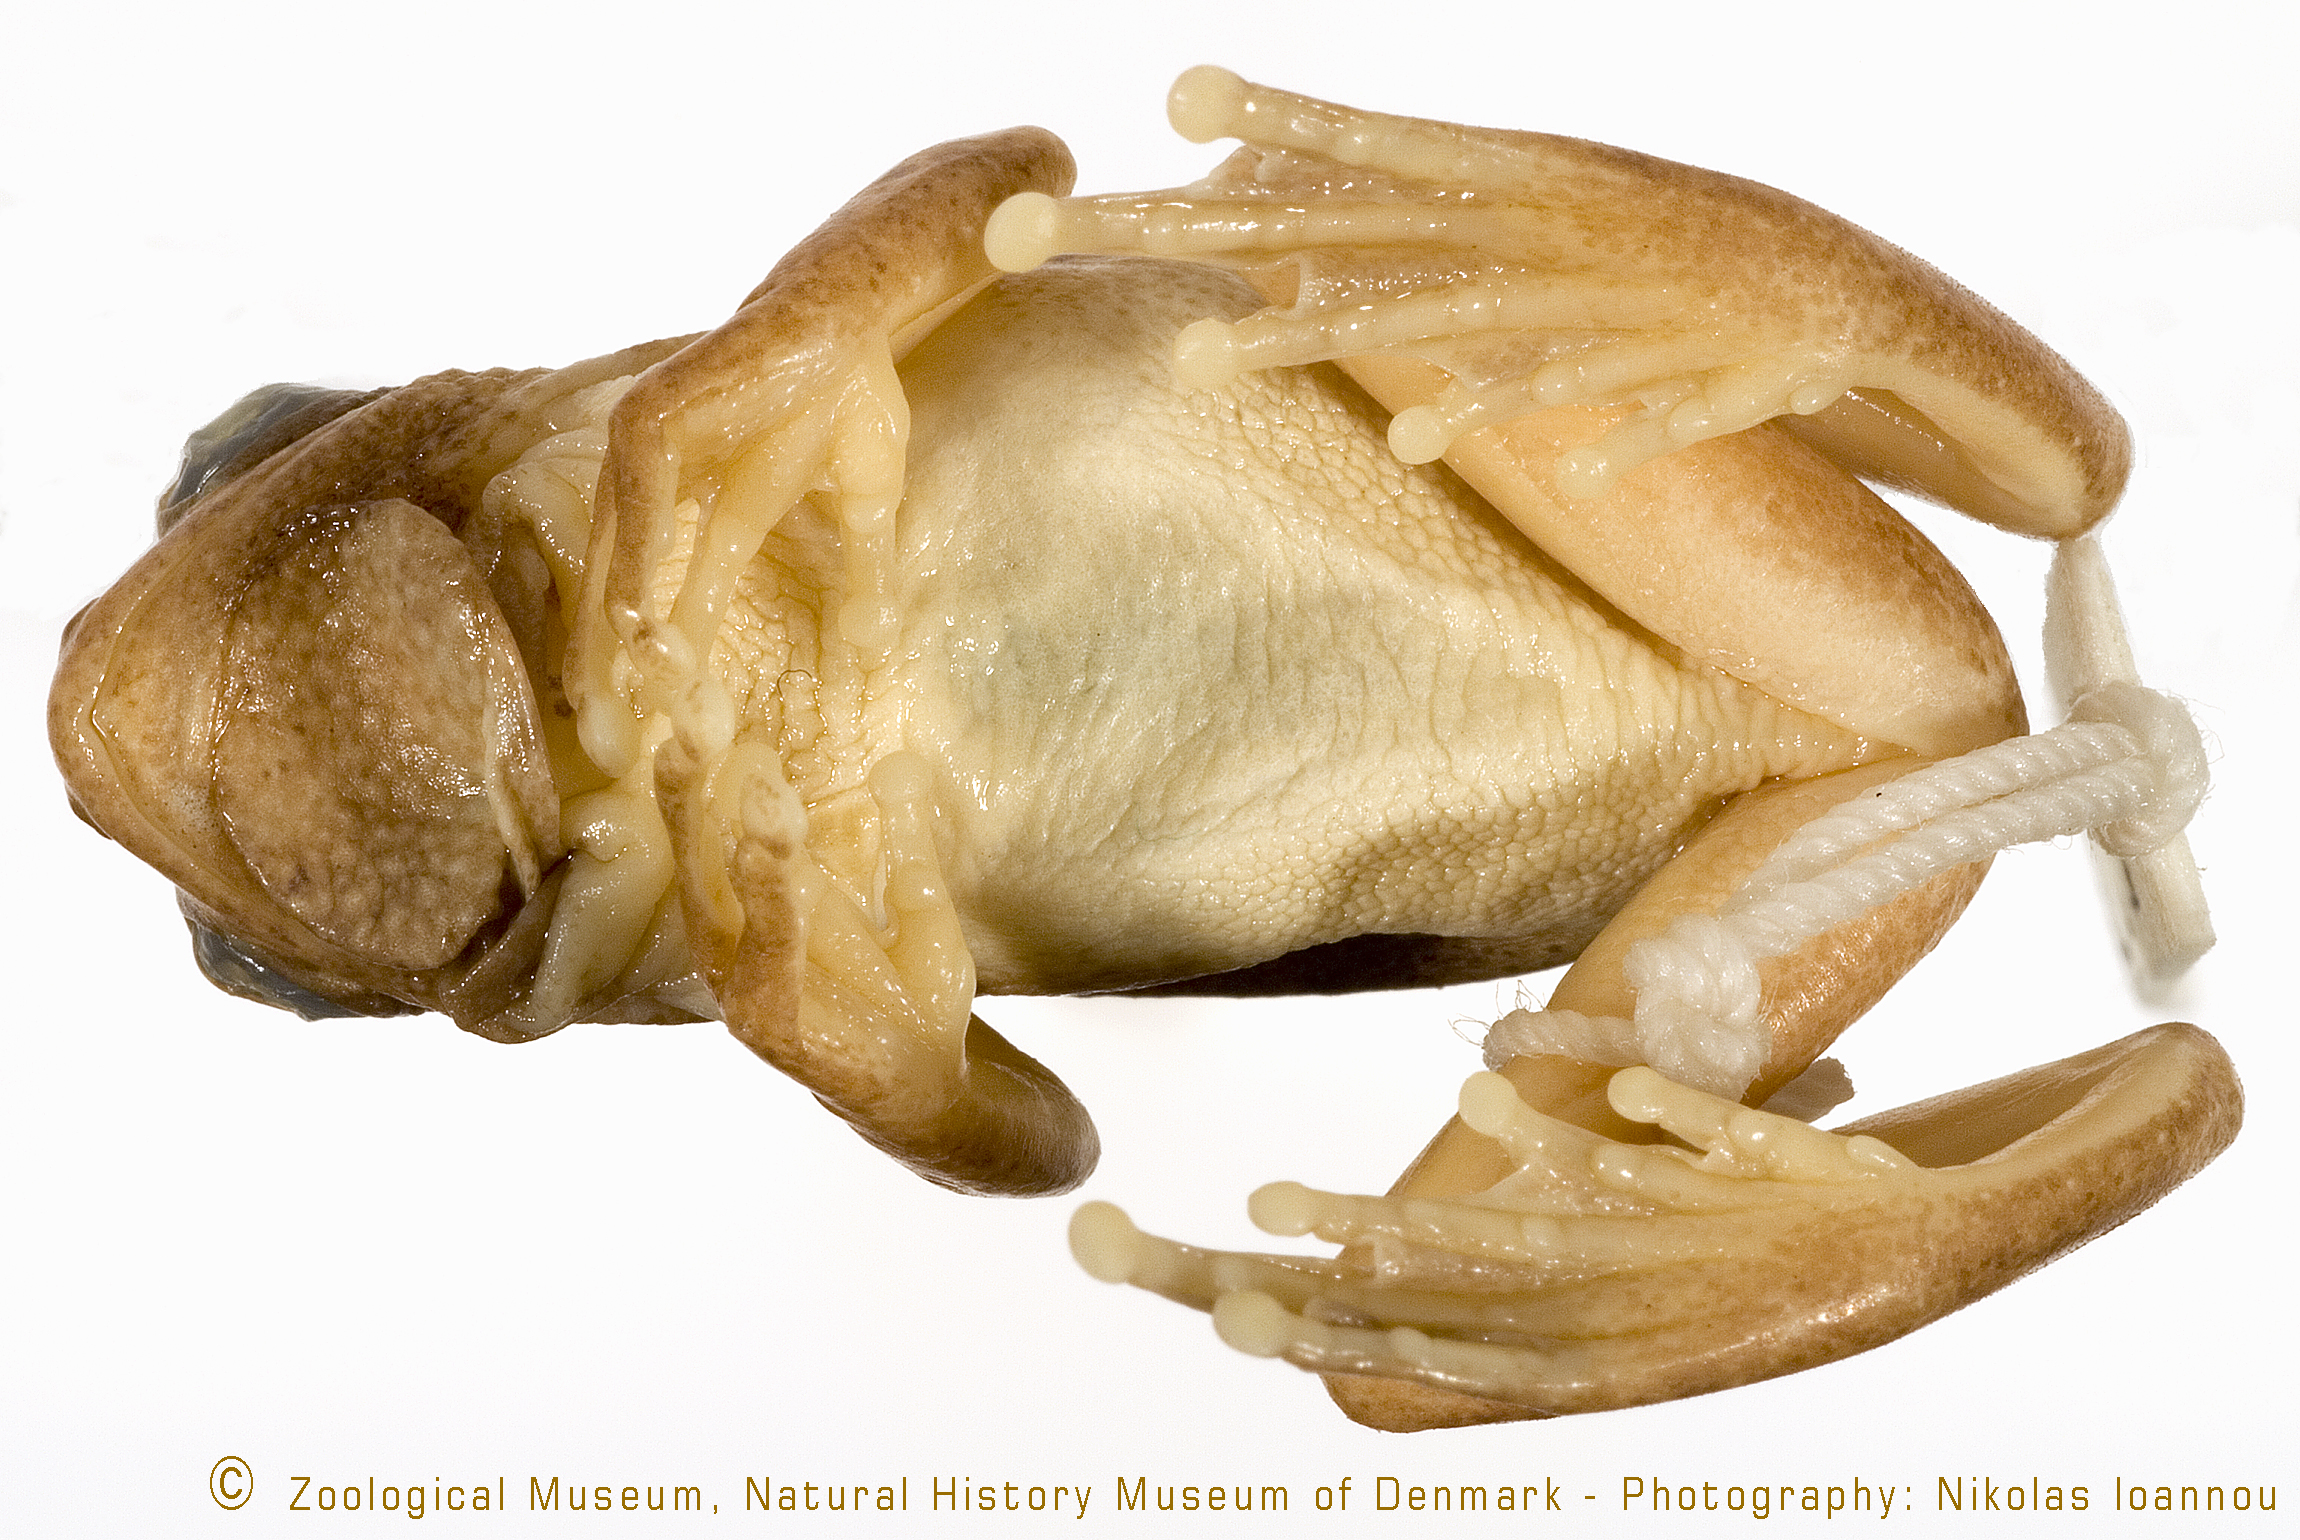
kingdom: Animalia
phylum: Chordata
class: Amphibia
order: Anura
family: Hyperoliidae
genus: Hyperolius
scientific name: Hyperolius viridiflavus
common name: Common reed frog
